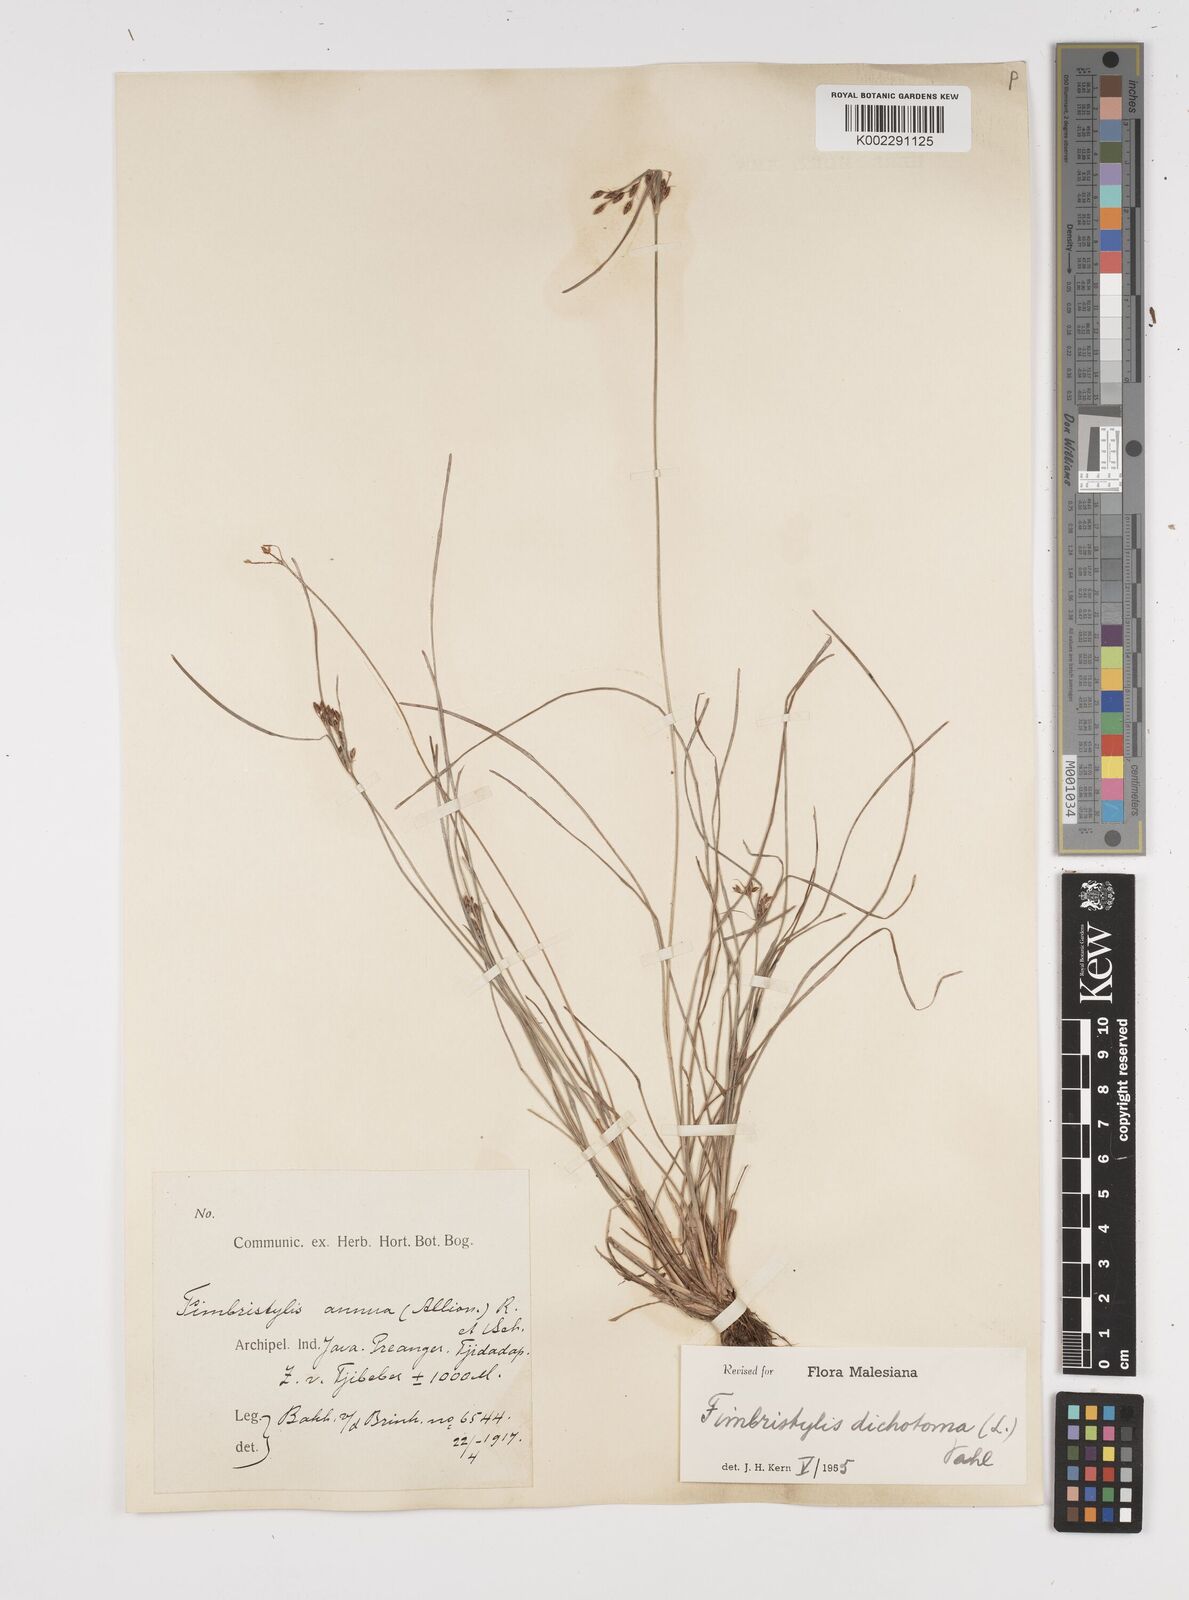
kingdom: Plantae
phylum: Tracheophyta
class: Liliopsida
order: Poales
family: Cyperaceae
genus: Fimbristylis
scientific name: Fimbristylis dichotoma
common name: Forked fimbry
